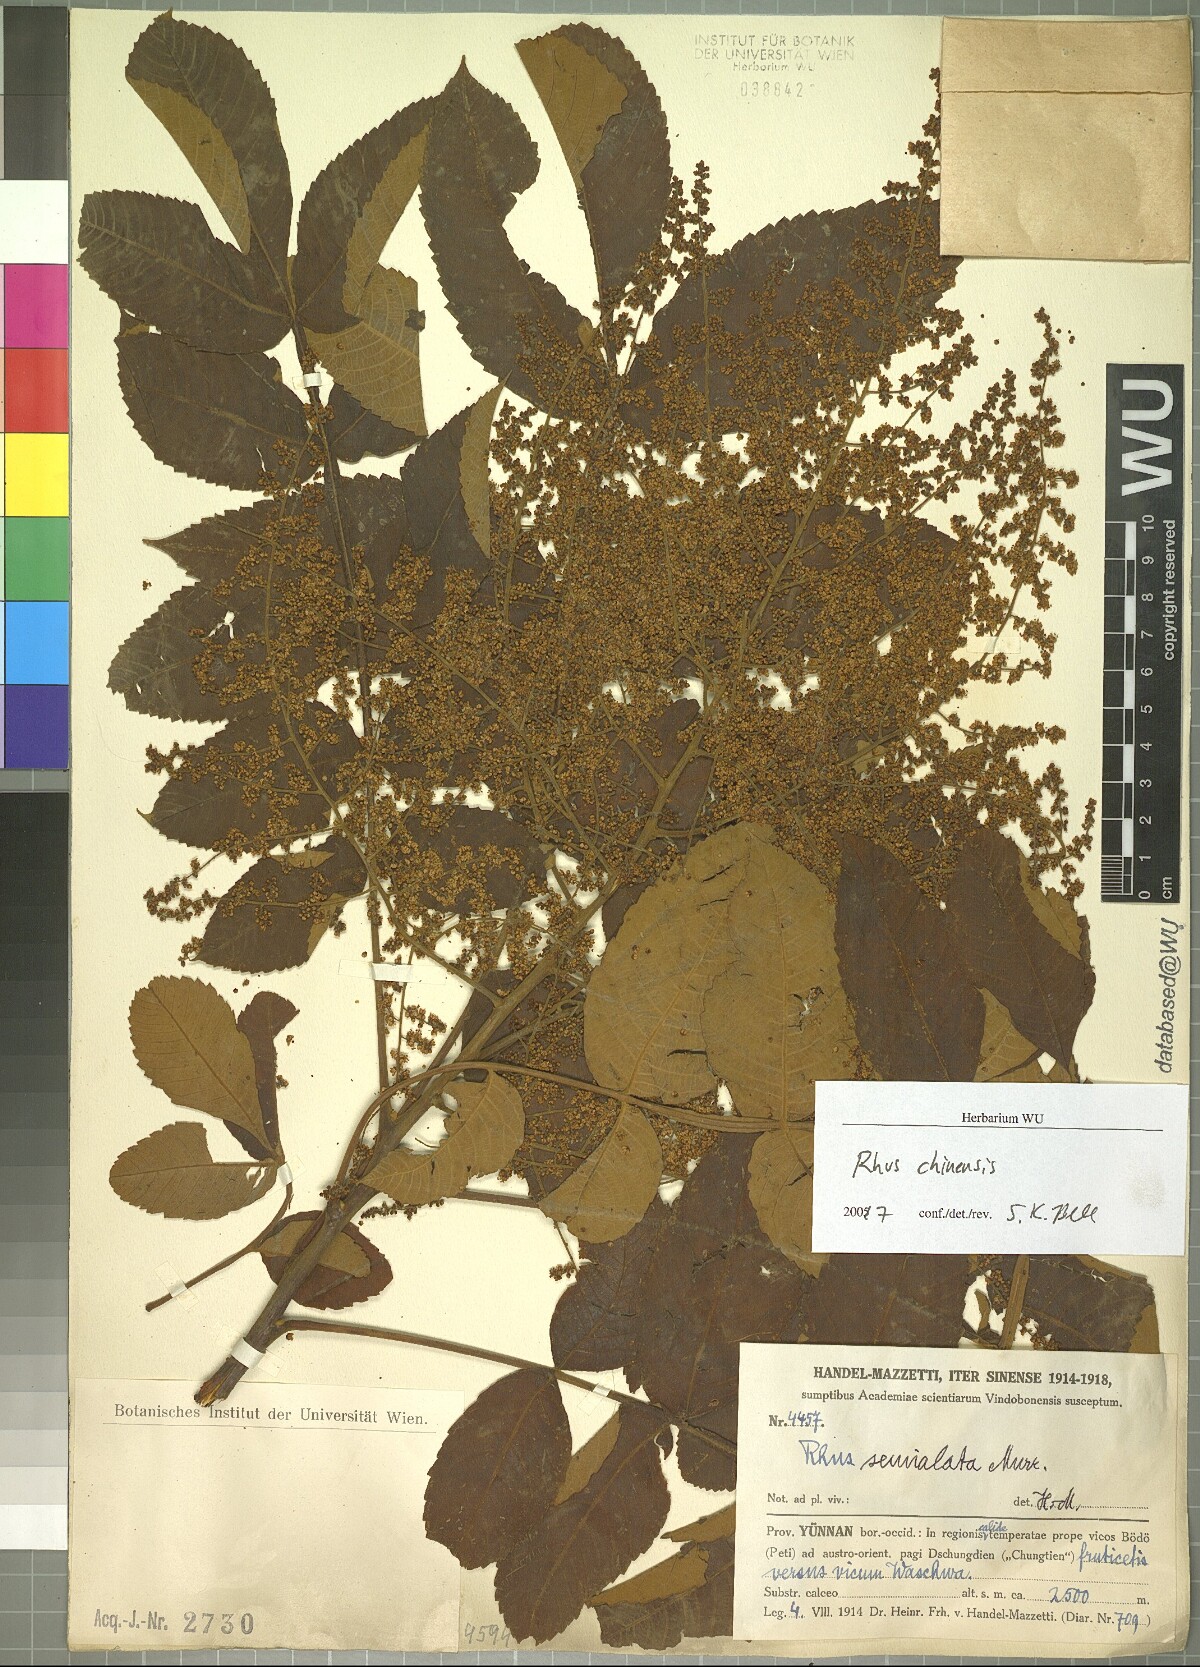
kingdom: Plantae
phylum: Tracheophyta
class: Magnoliopsida
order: Sapindales
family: Anacardiaceae
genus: Rhus
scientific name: Rhus chinensis
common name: Chinese gall
